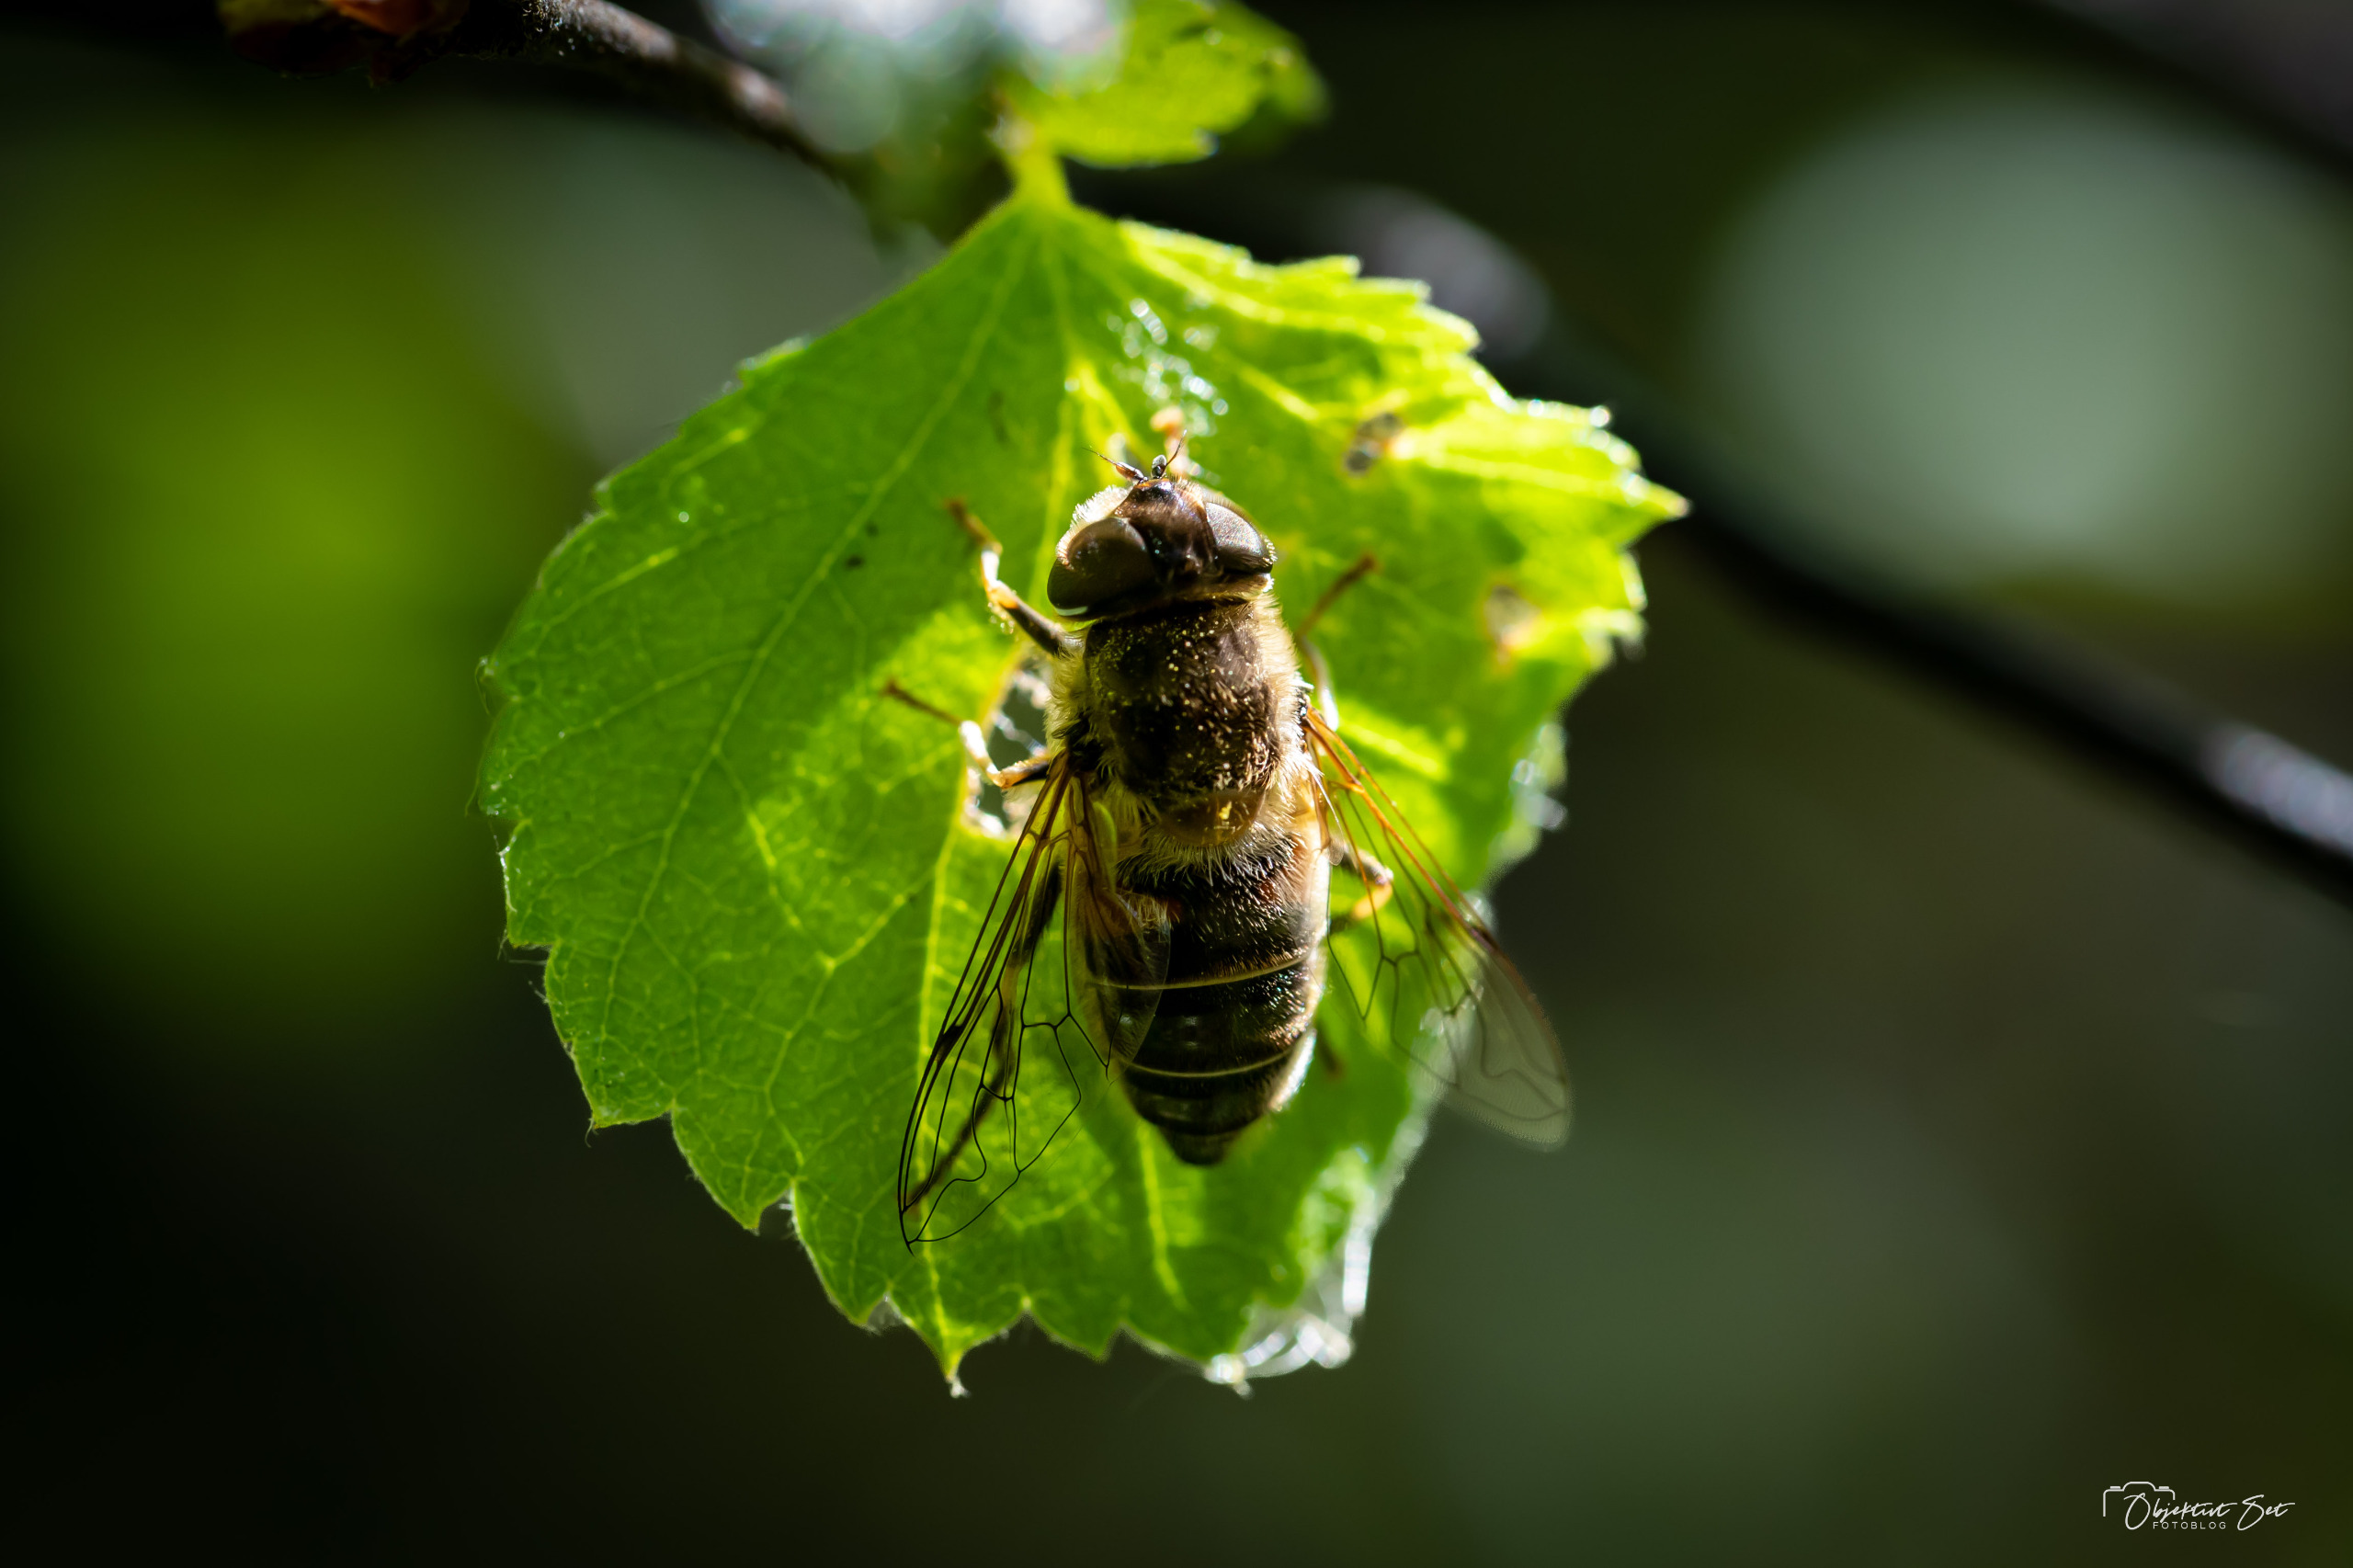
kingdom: Animalia
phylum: Arthropoda
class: Insecta
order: Diptera
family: Syrphidae
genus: Eristalis
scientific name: Eristalis pertinax
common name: Gulfodet dyndflue
